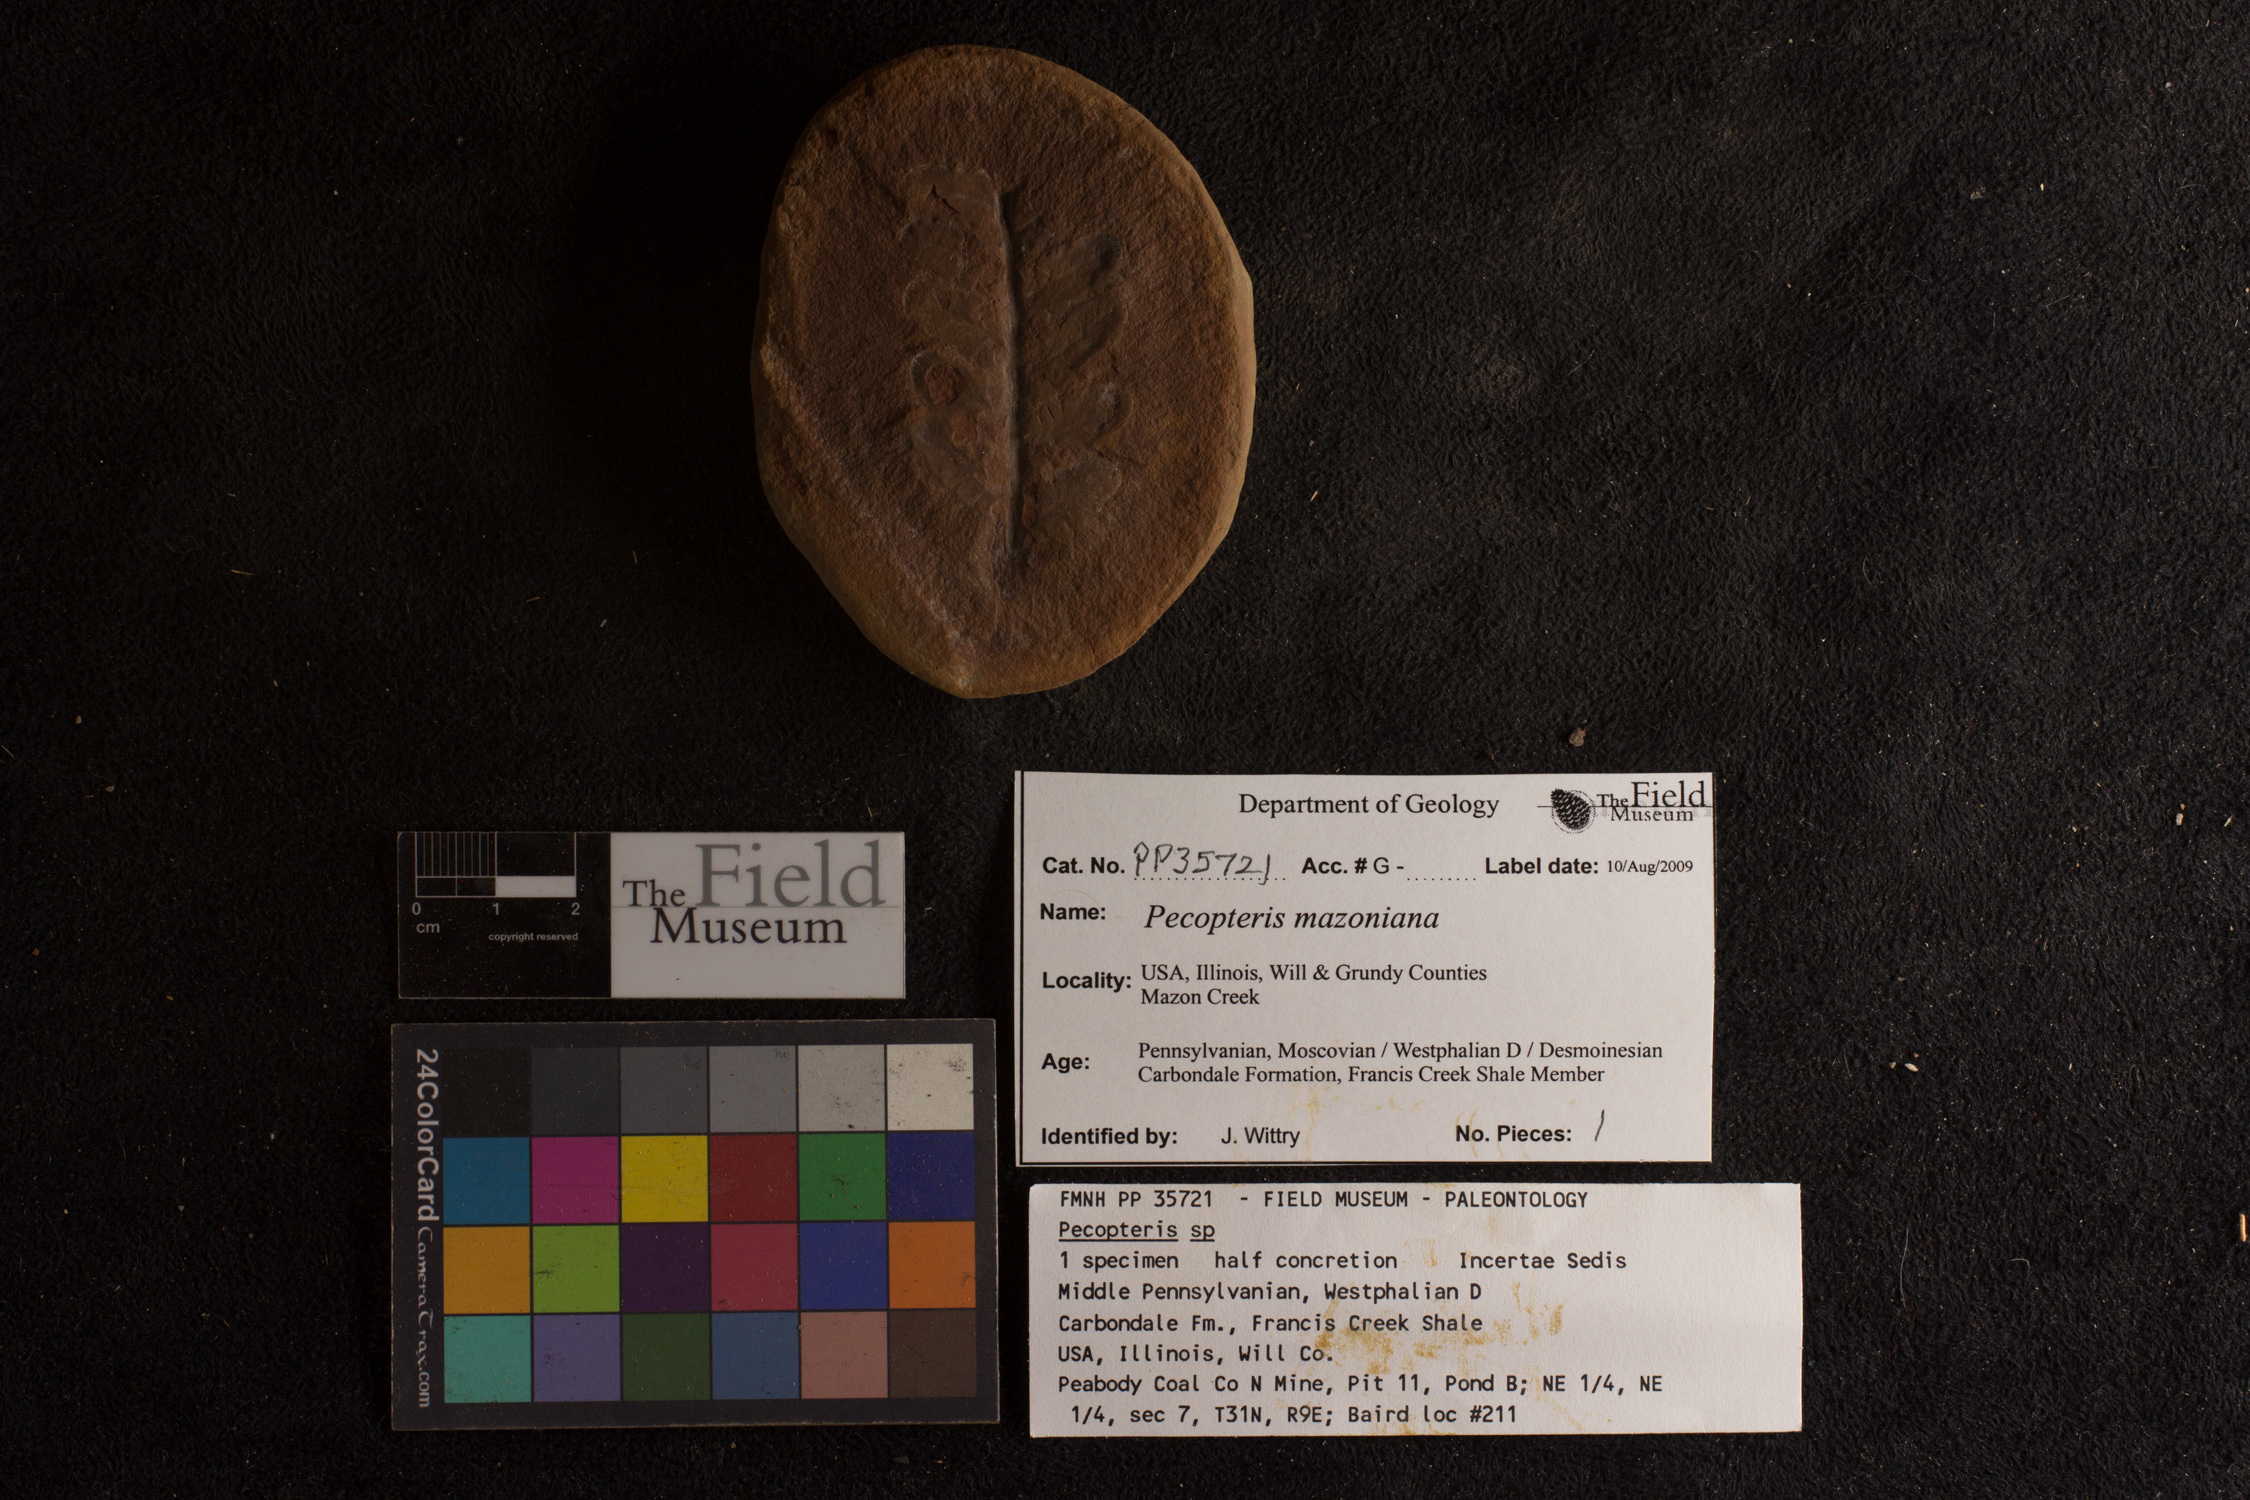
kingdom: Plantae
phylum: Tracheophyta
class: Polypodiopsida
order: Marattiales
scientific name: Marattiales
